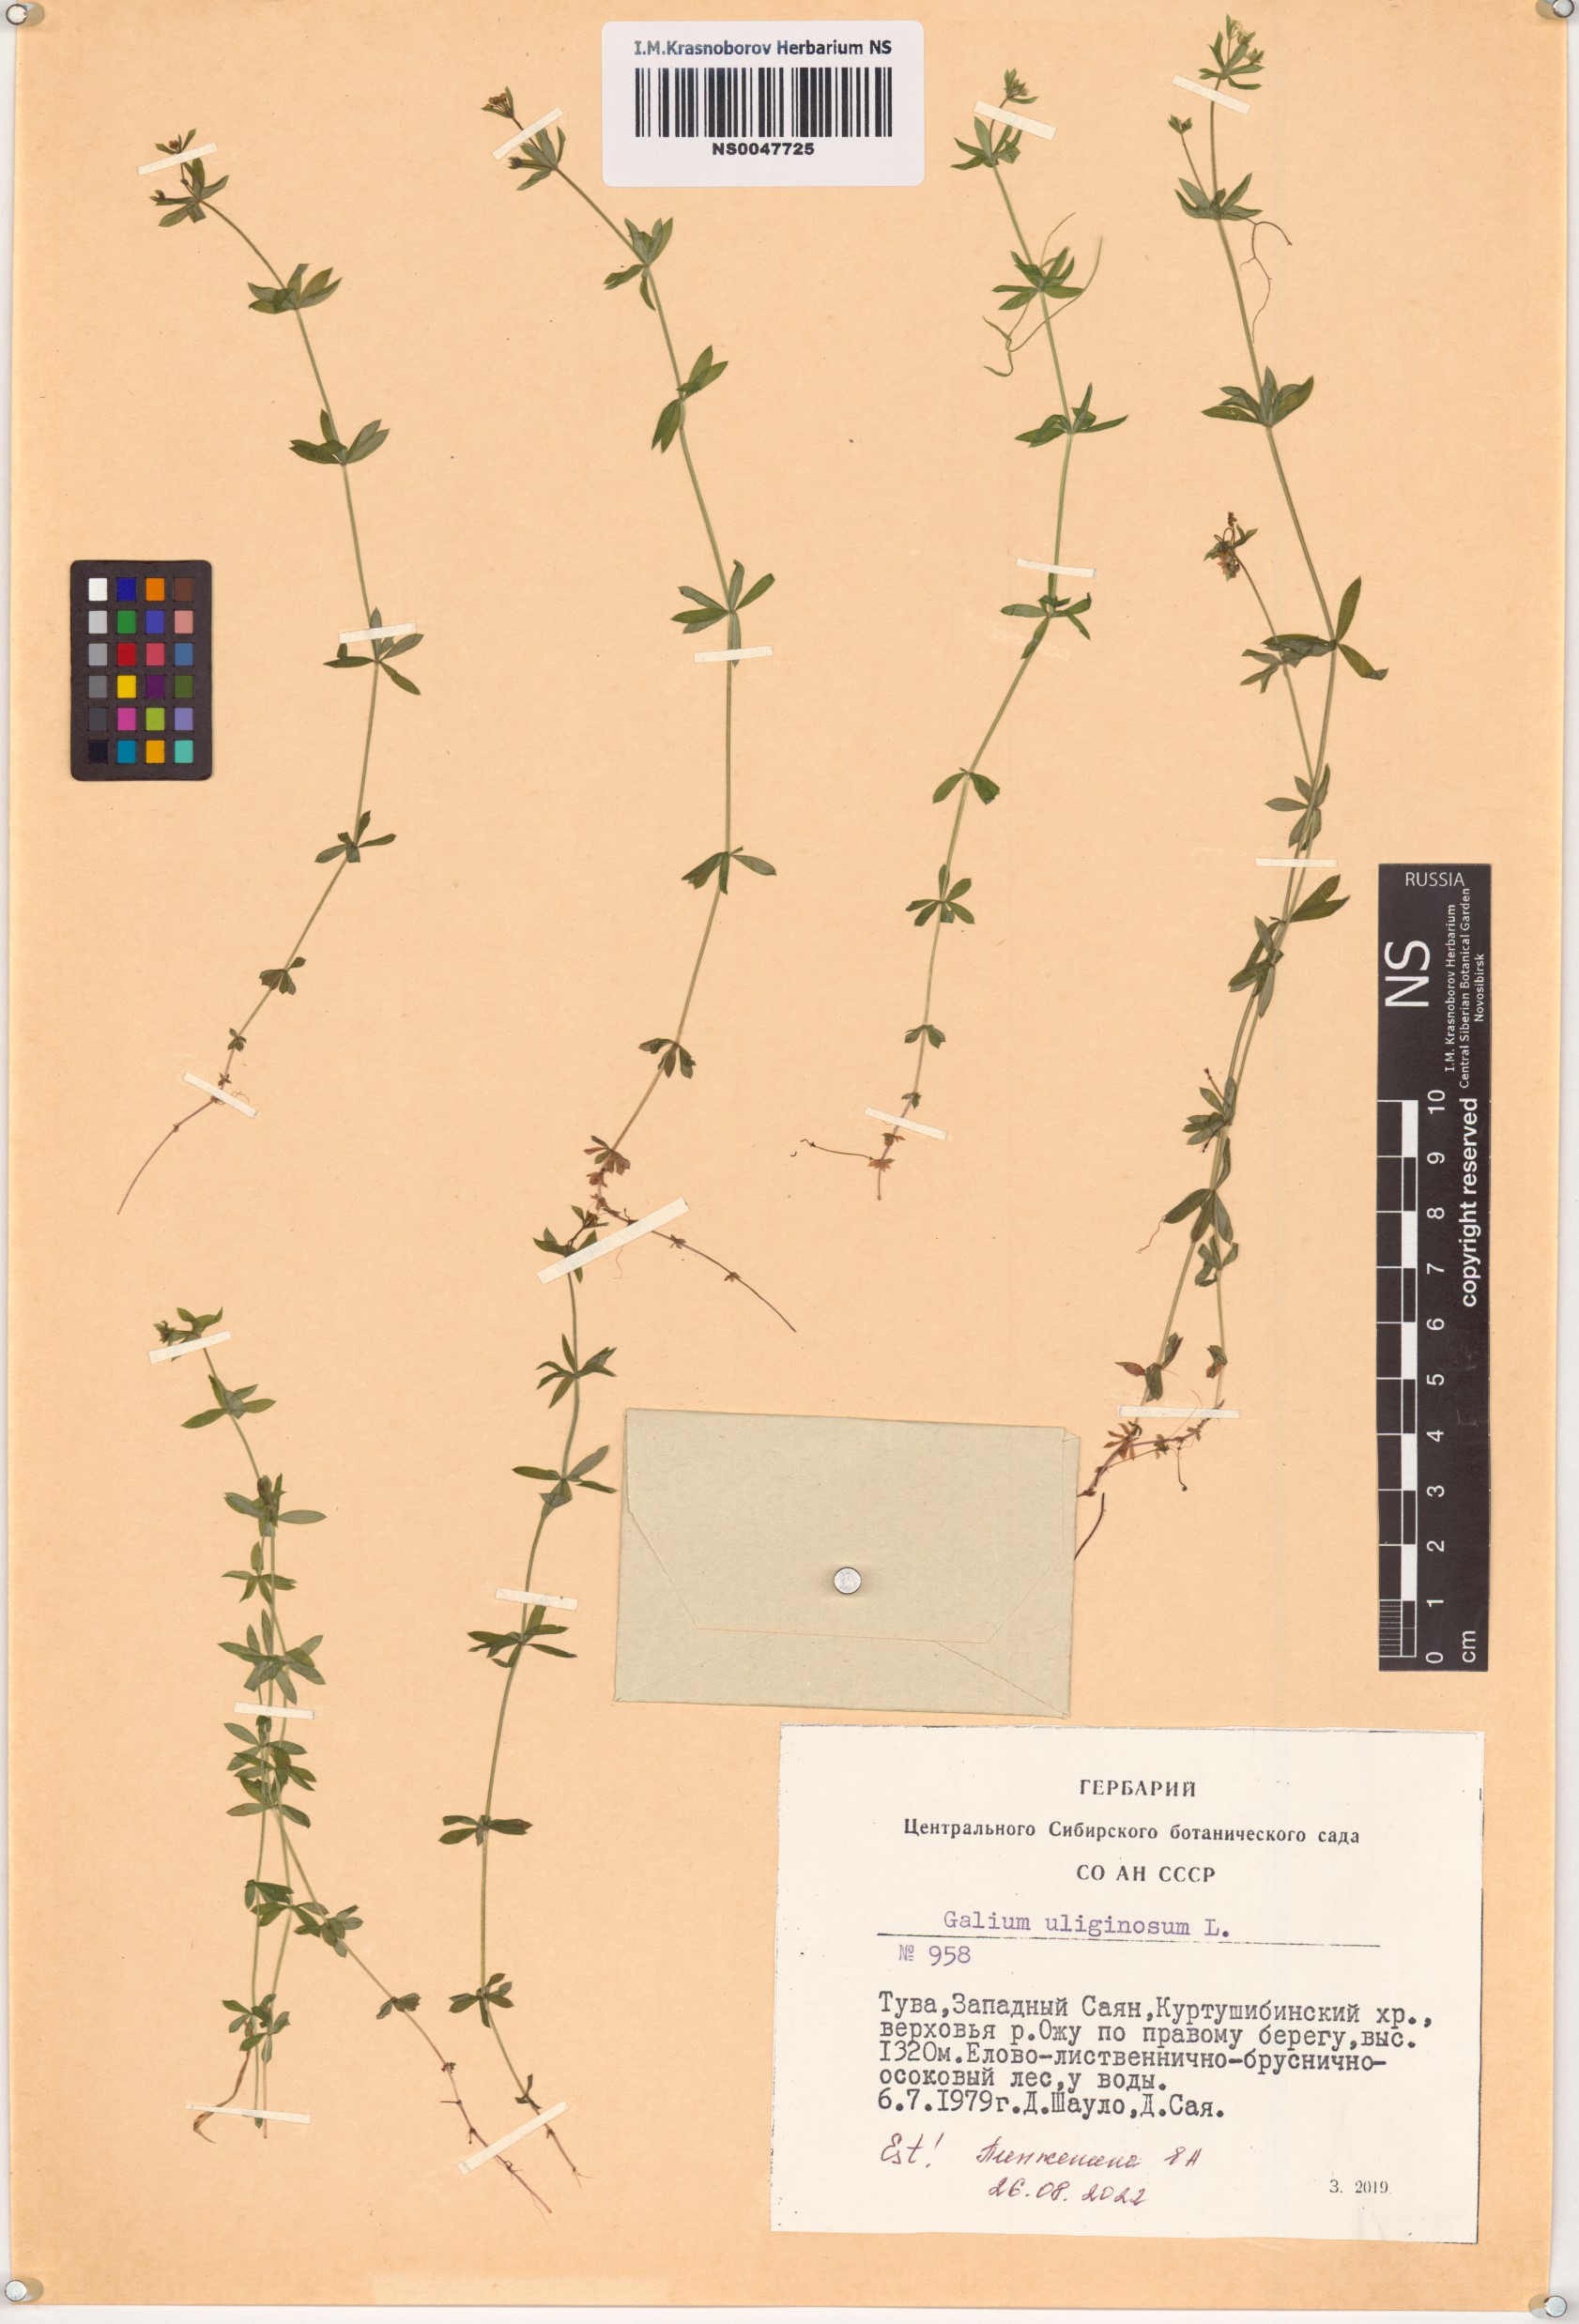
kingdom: Plantae
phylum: Tracheophyta
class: Magnoliopsida
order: Gentianales
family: Rubiaceae
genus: Galium
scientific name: Galium uliginosum
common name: Fen bedstraw
